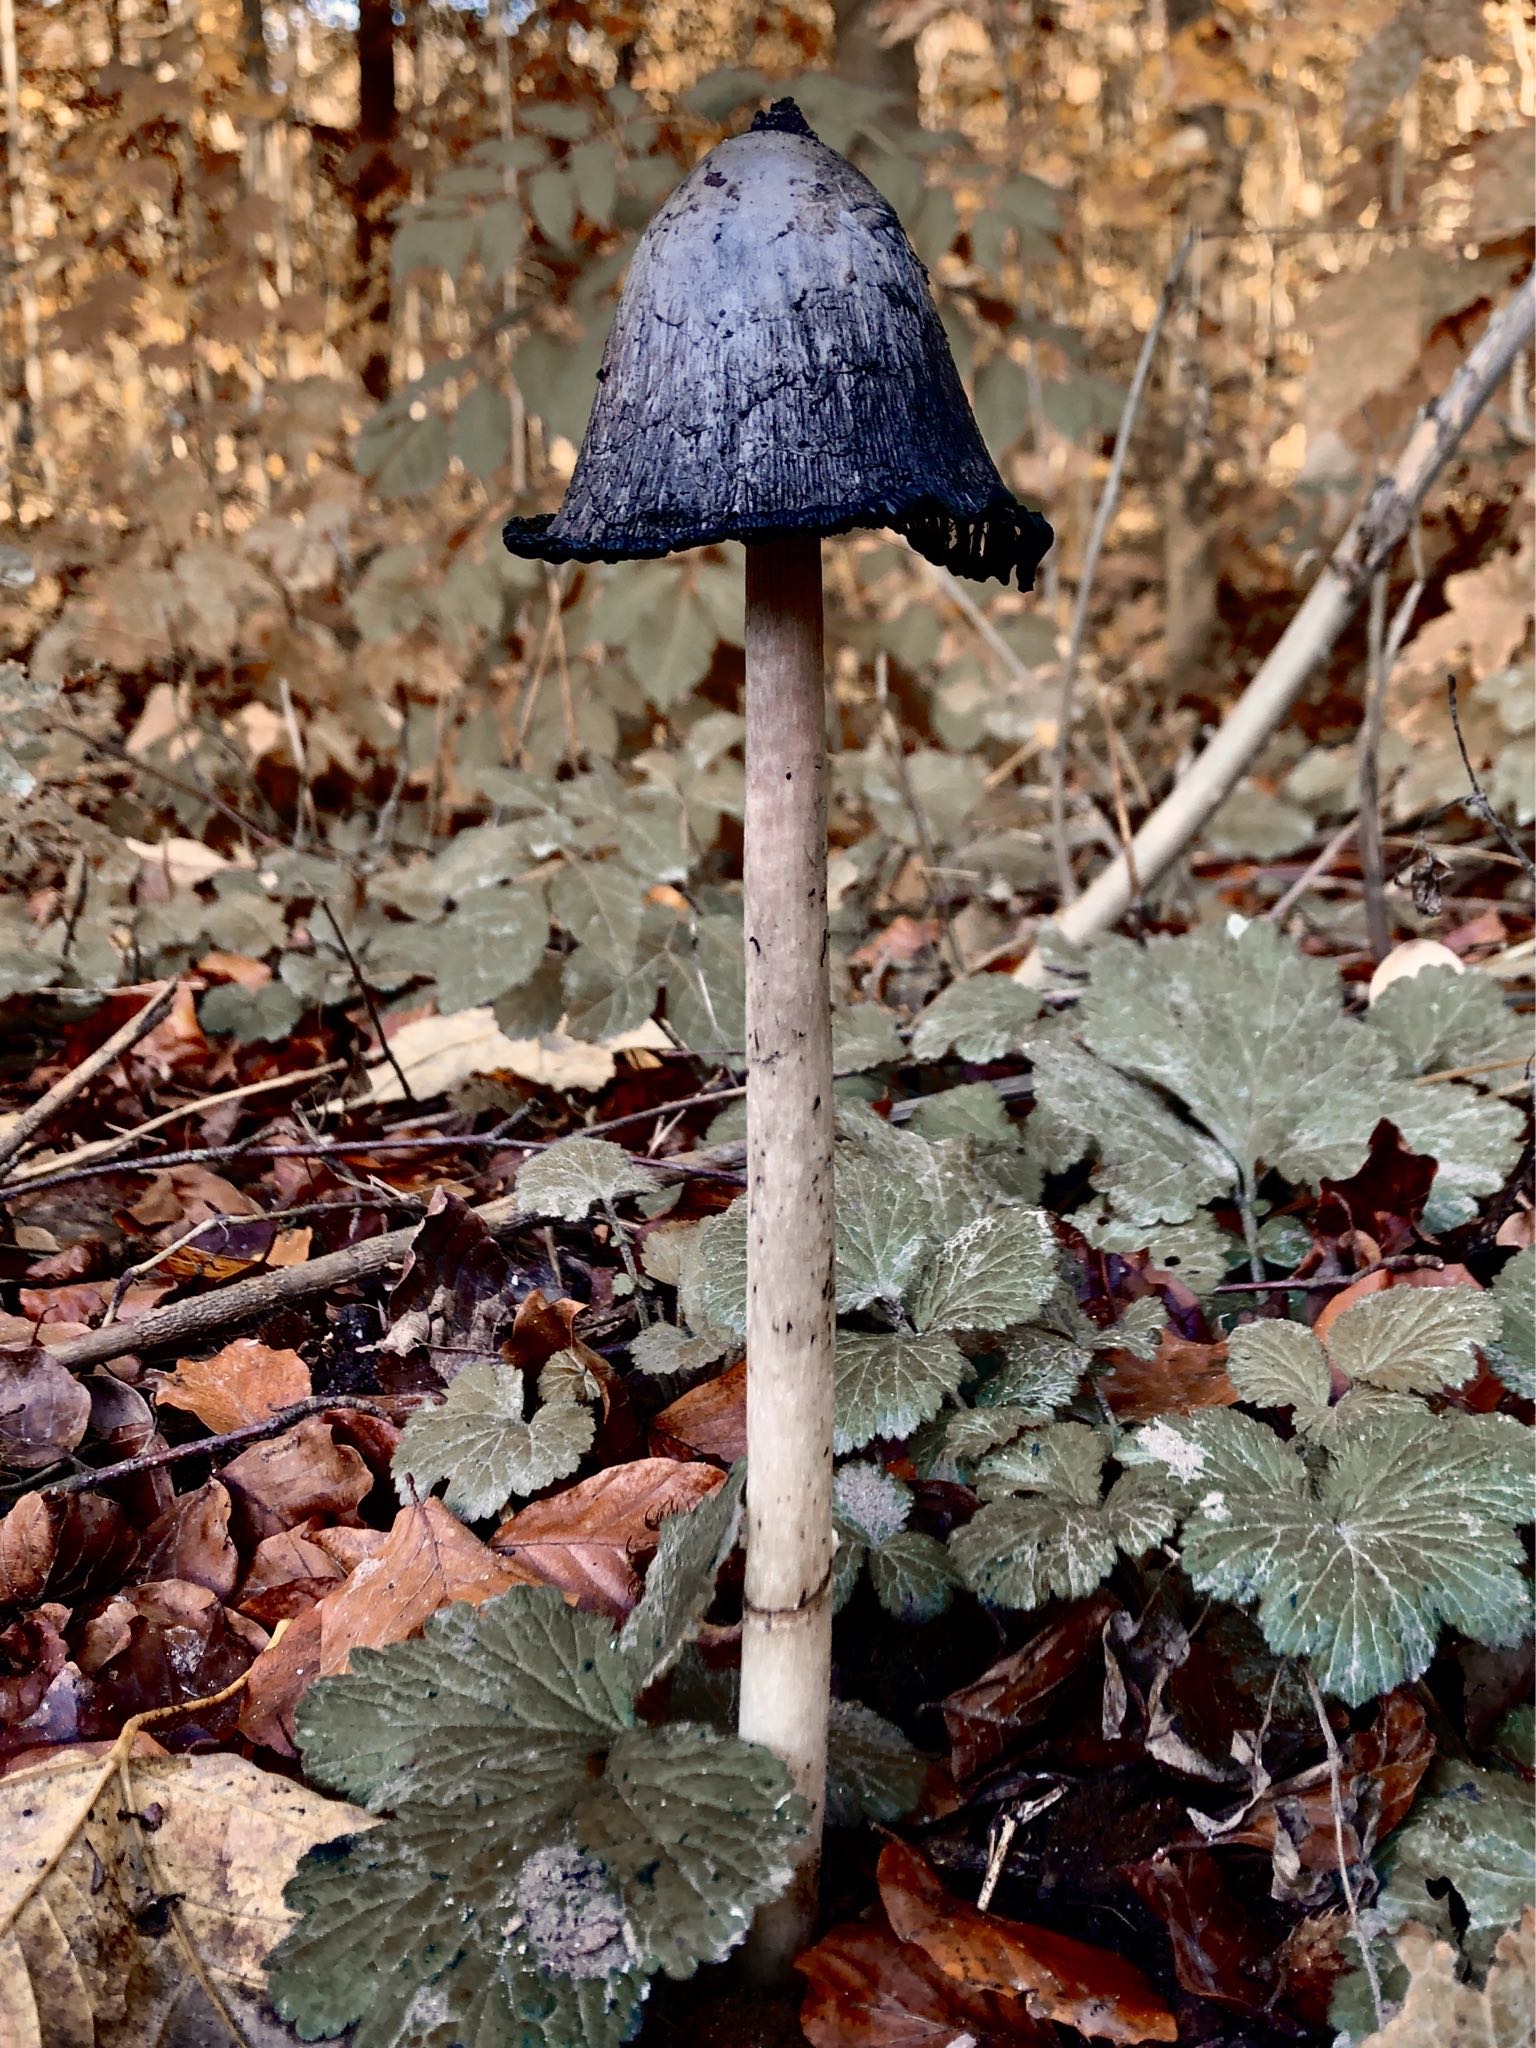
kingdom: Fungi
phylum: Basidiomycota
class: Agaricomycetes
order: Agaricales
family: Agaricaceae
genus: Coprinus
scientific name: Coprinus comatus
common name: stor parykhat
